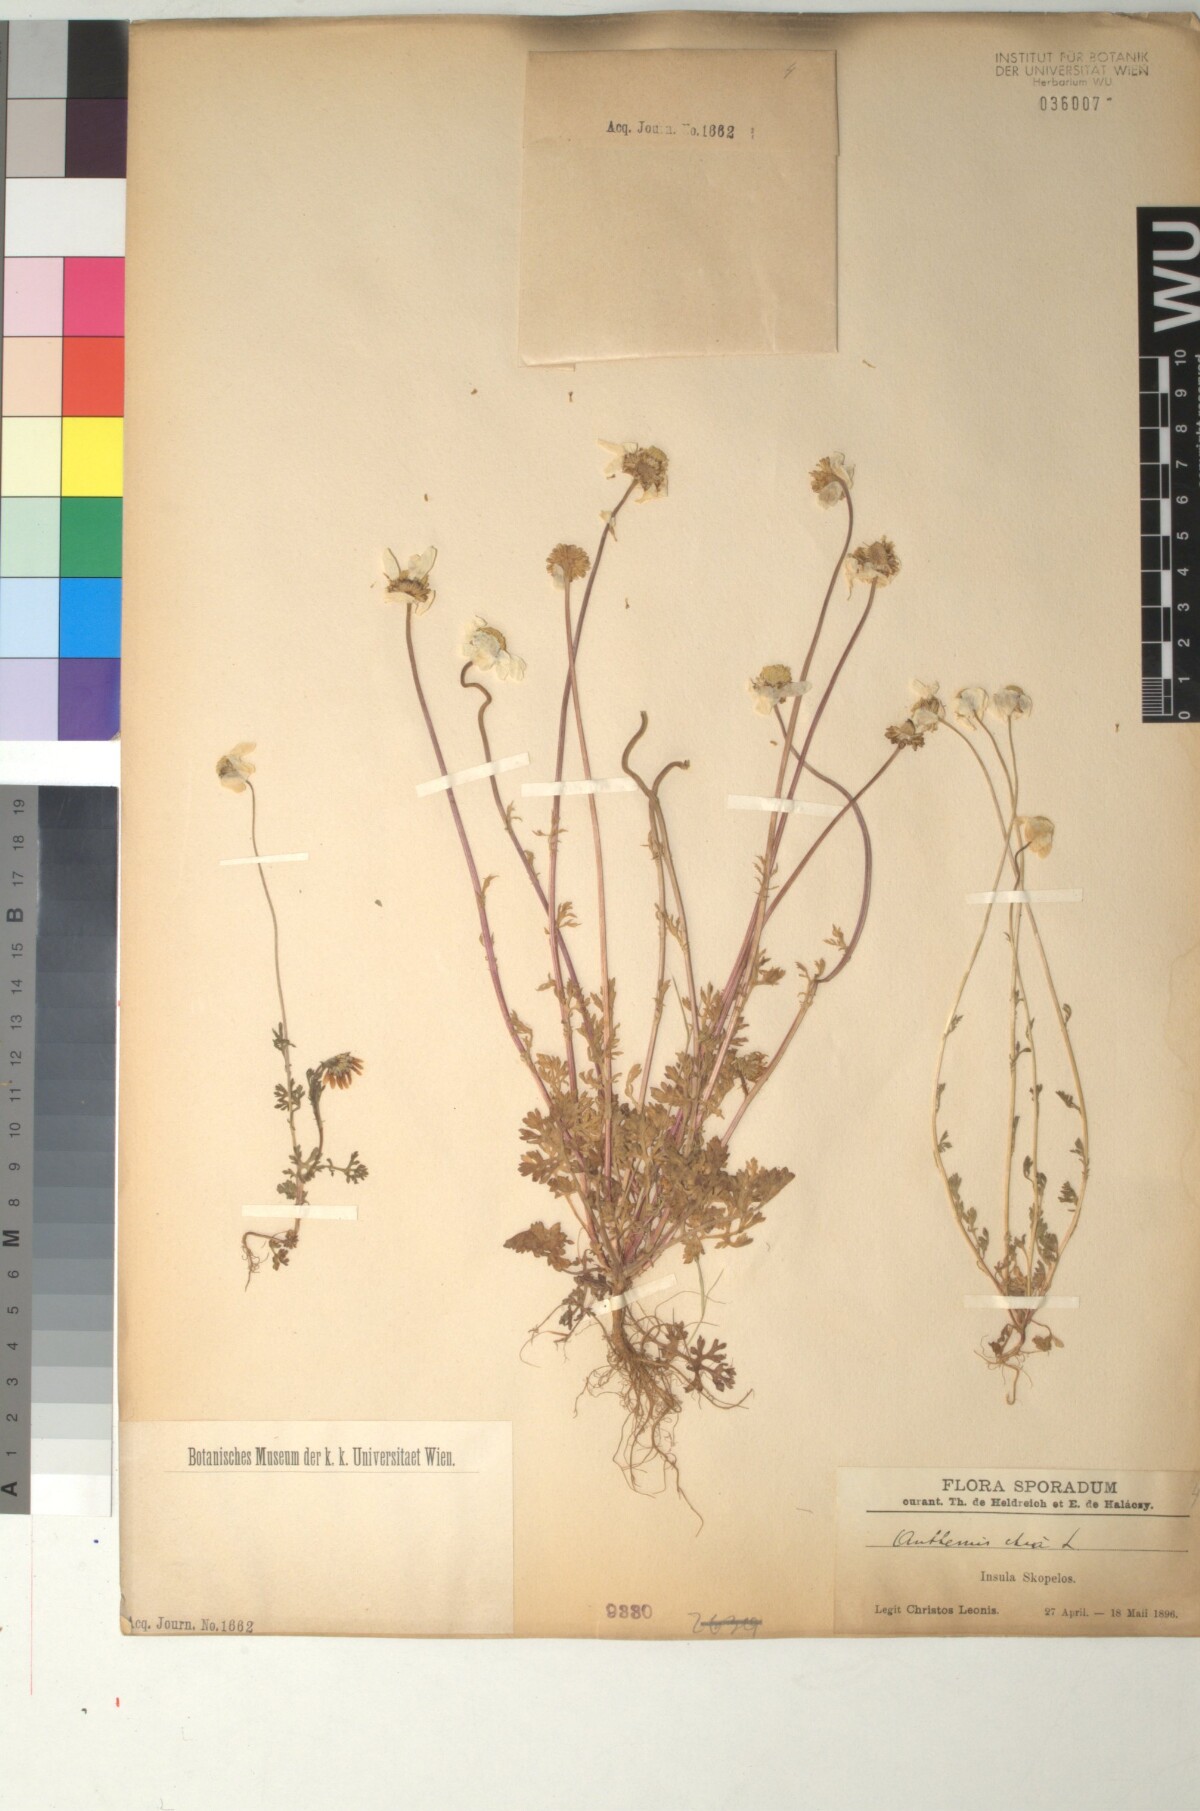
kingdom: Plantae
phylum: Tracheophyta
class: Magnoliopsida
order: Asterales
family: Asteraceae
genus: Anthemis
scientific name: Anthemis chia
